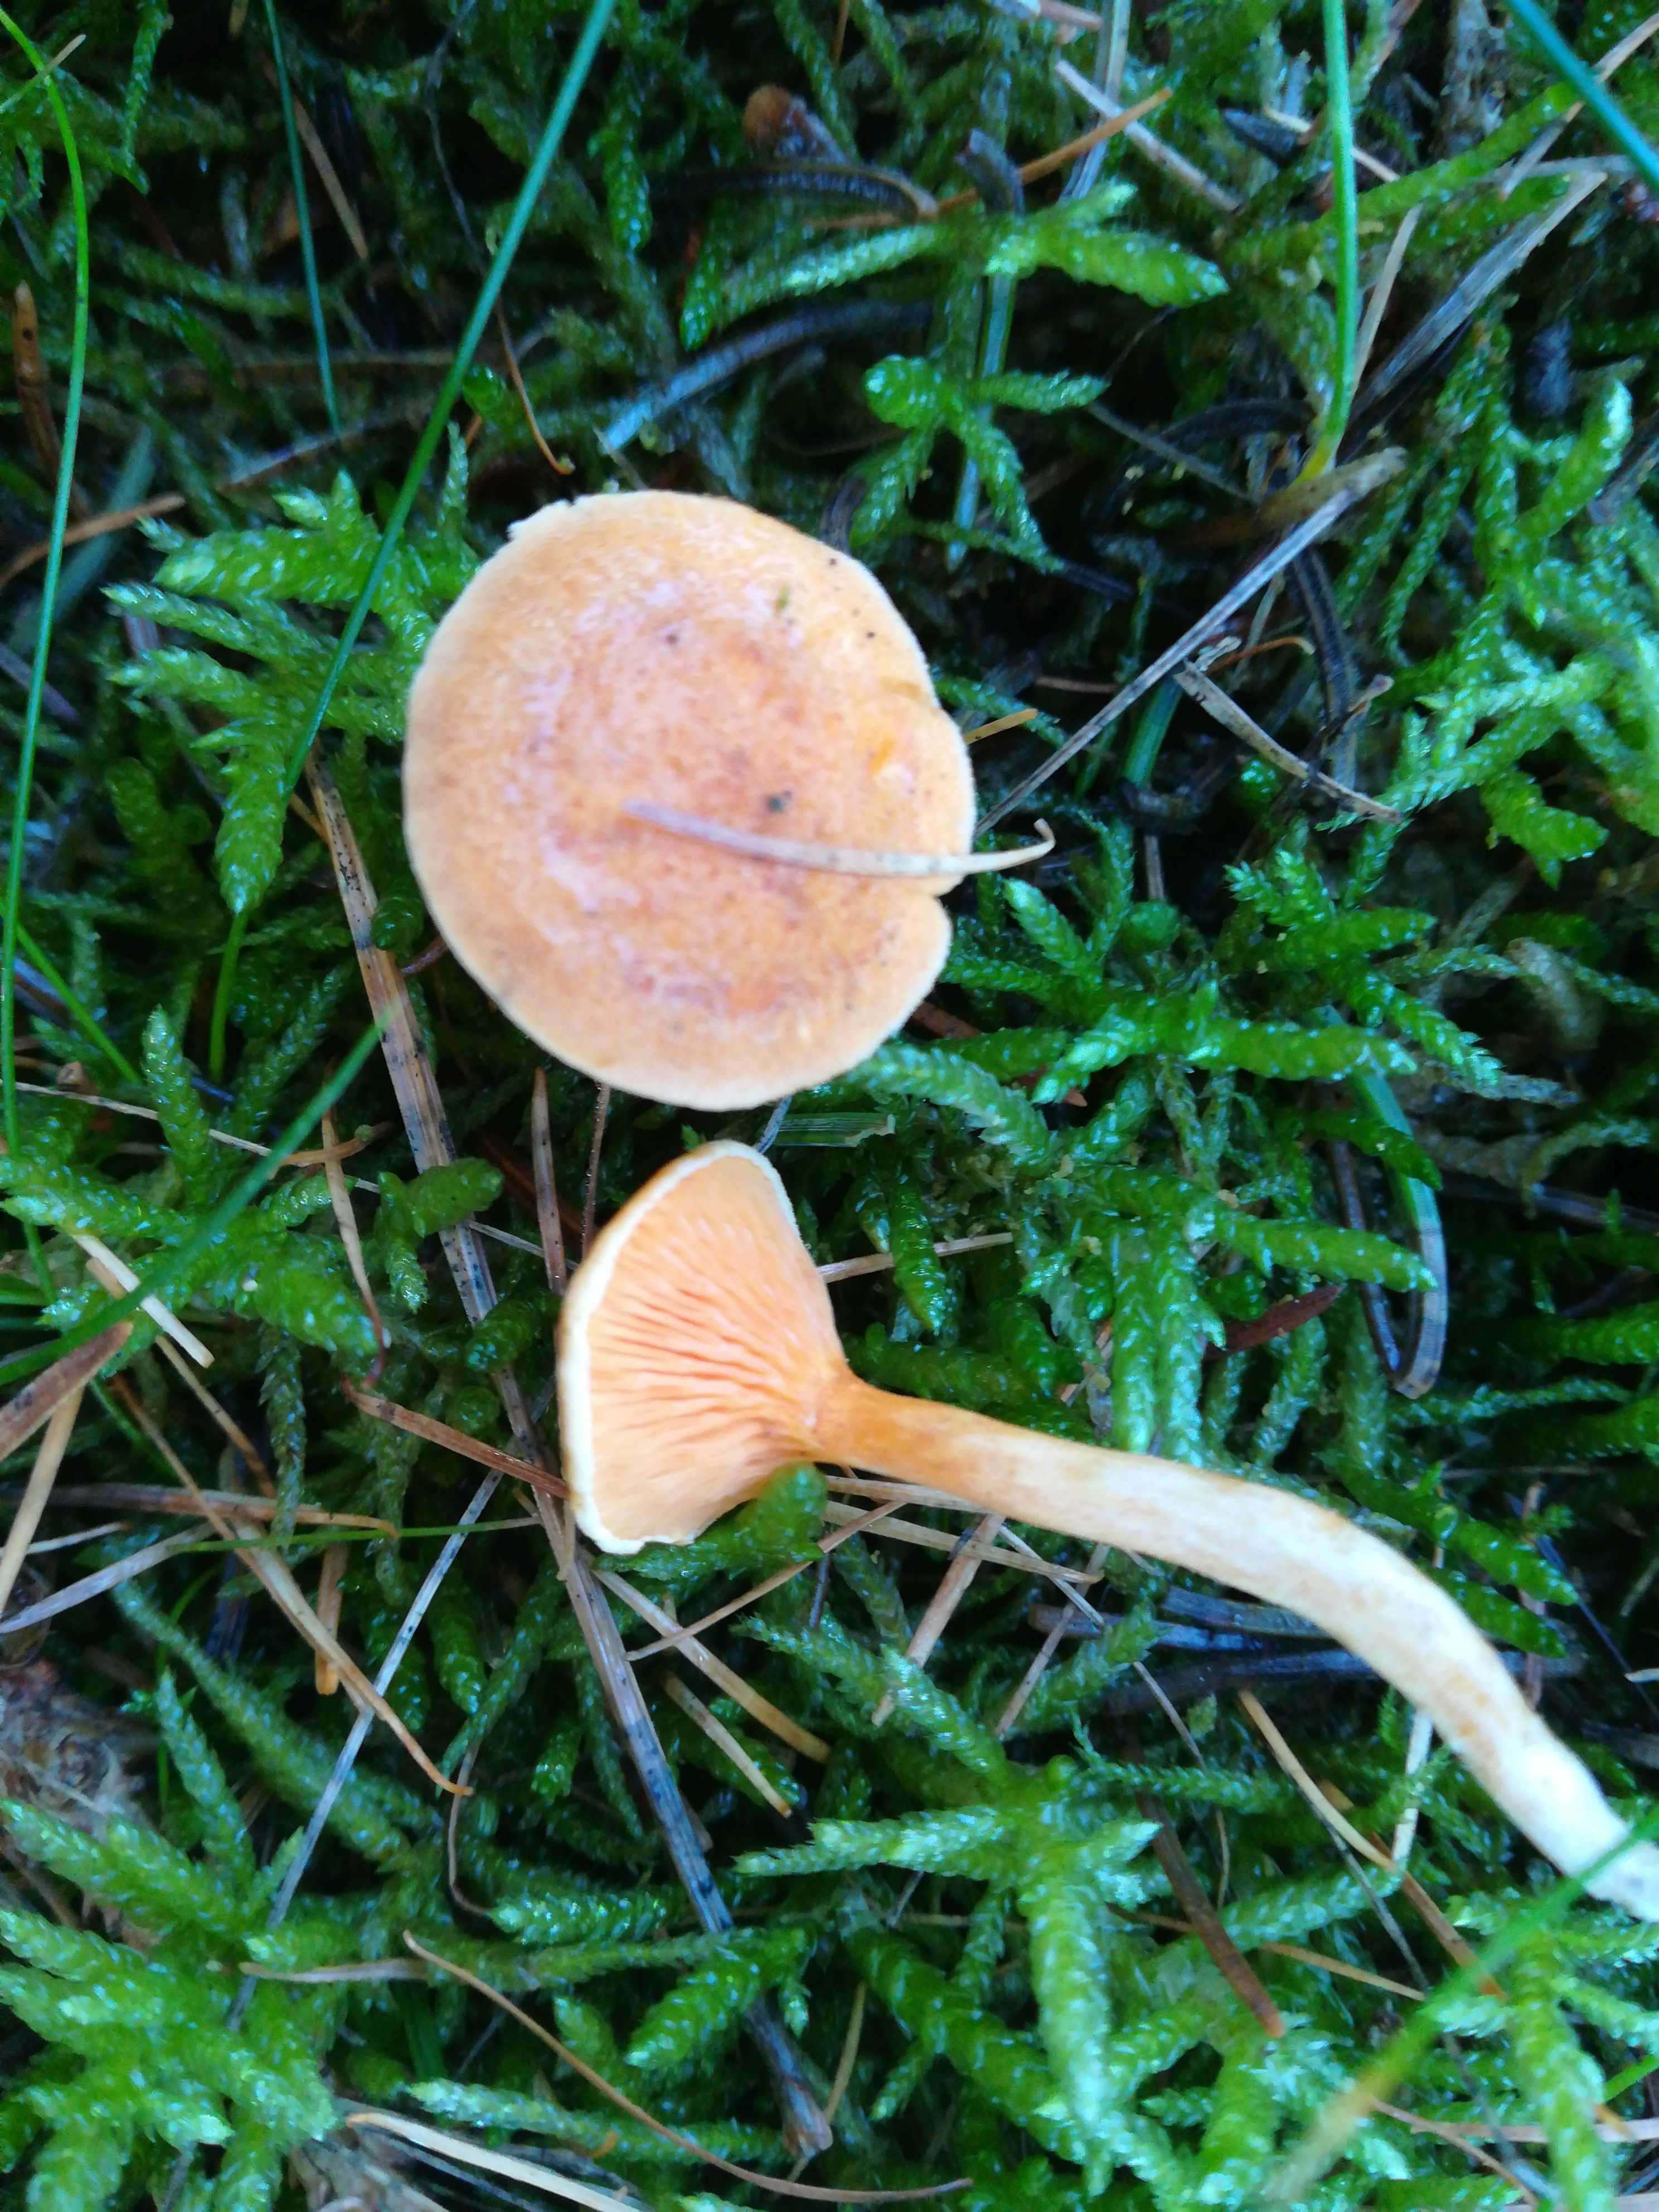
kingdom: Fungi
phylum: Basidiomycota
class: Agaricomycetes
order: Boletales
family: Hygrophoropsidaceae
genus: Hygrophoropsis
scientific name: Hygrophoropsis aurantiaca
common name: almindelig orangekantarel
